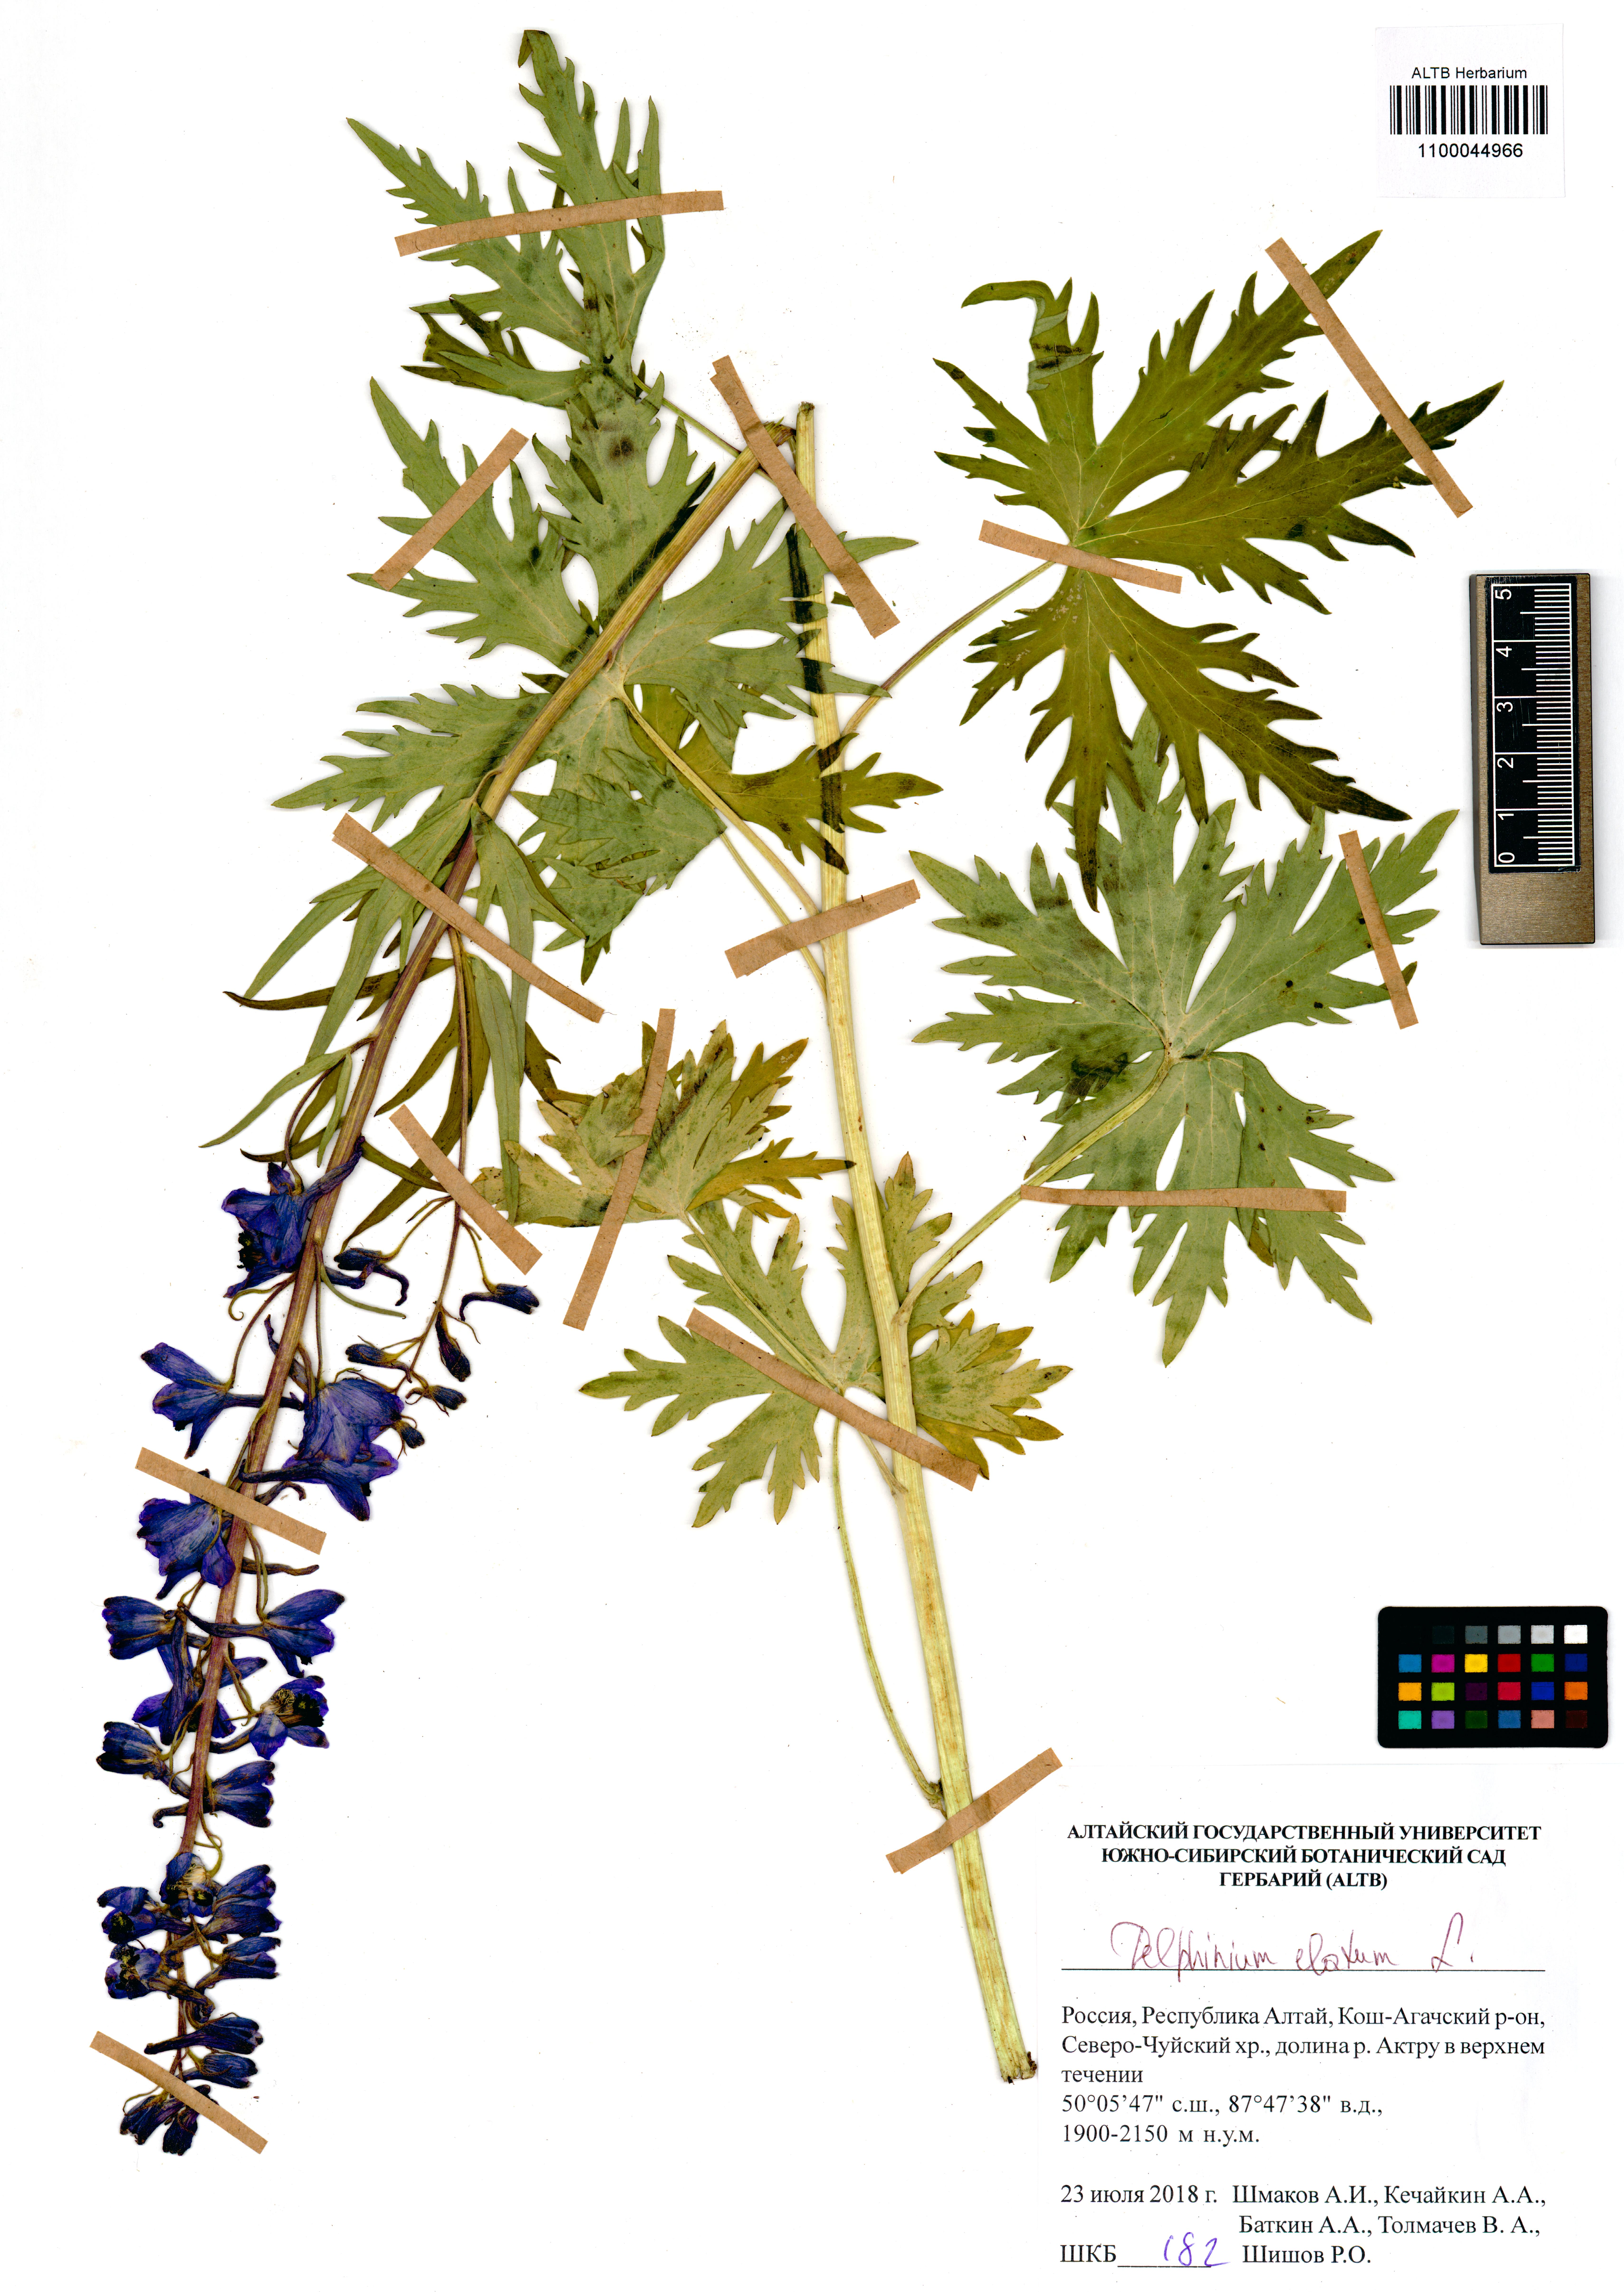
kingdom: Plantae
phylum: Tracheophyta
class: Magnoliopsida
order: Ranunculales
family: Ranunculaceae
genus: Delphinium
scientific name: Delphinium elatum
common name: Candle larkspur
